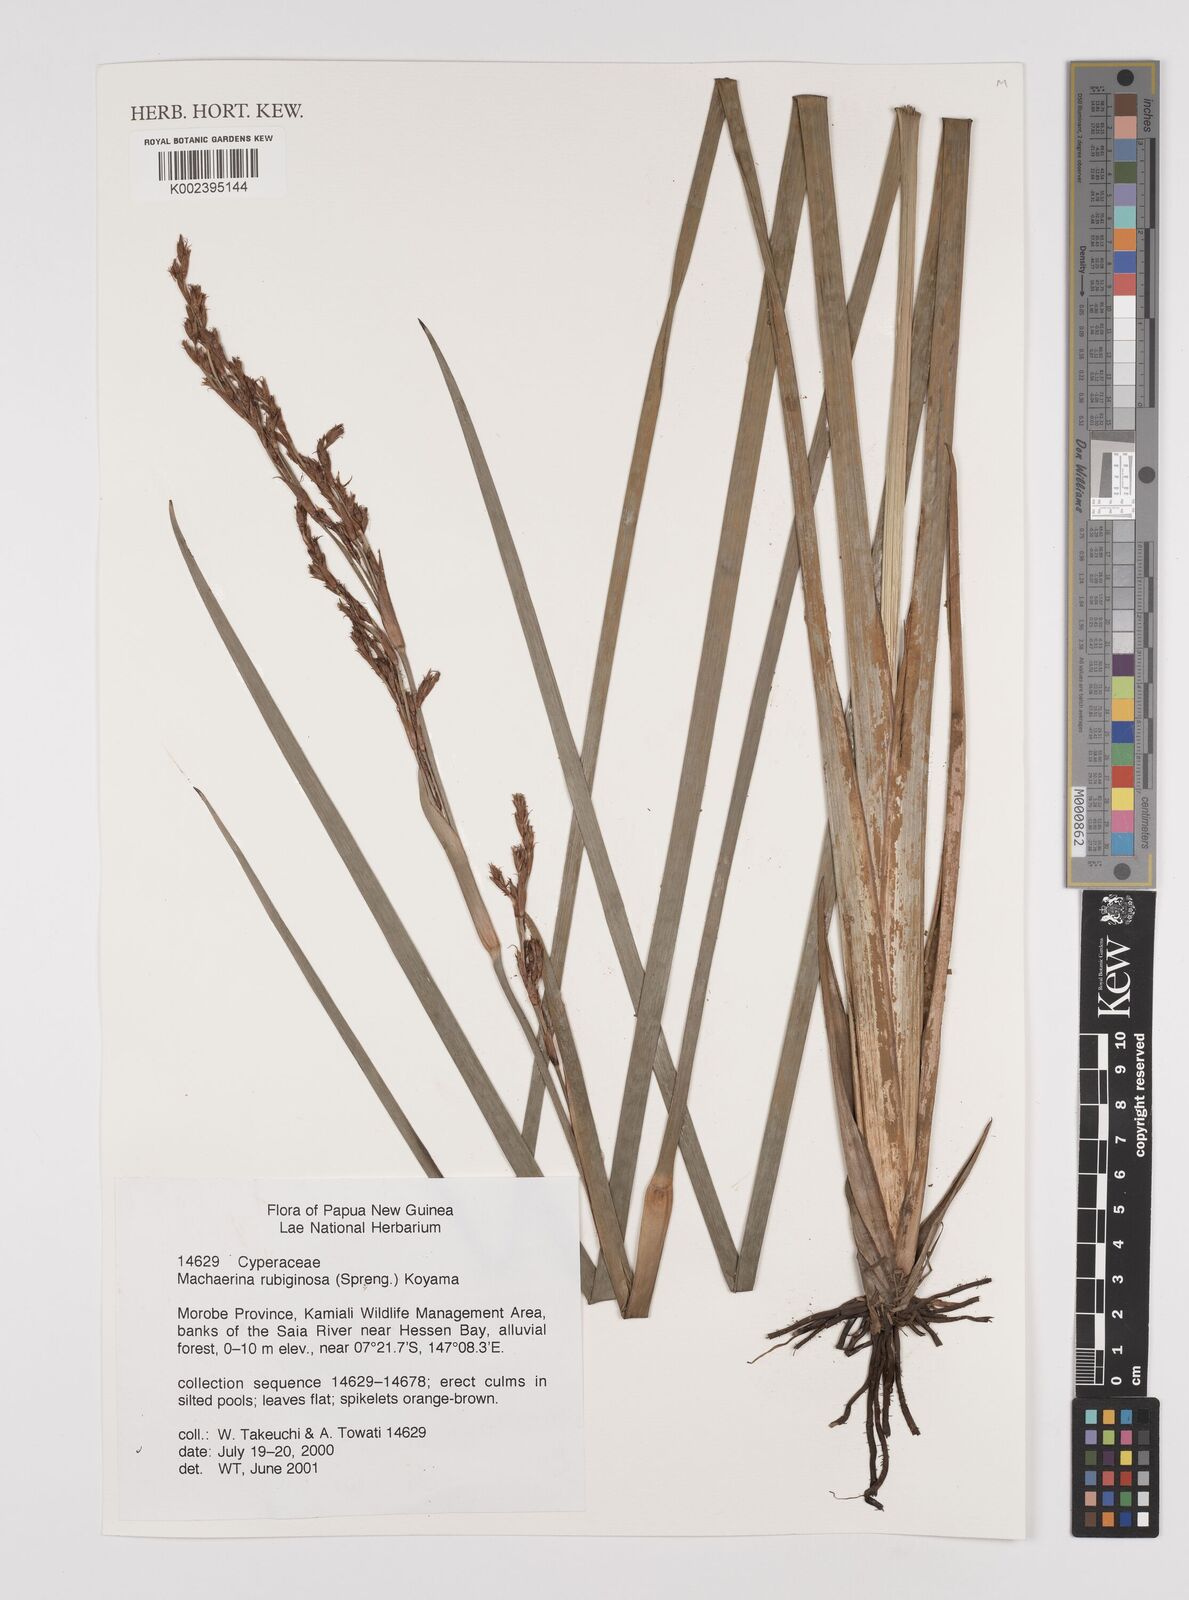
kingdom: Plantae
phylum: Tracheophyta
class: Liliopsida
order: Poales
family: Cyperaceae
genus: Machaerina
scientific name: Machaerina rubiginosa
